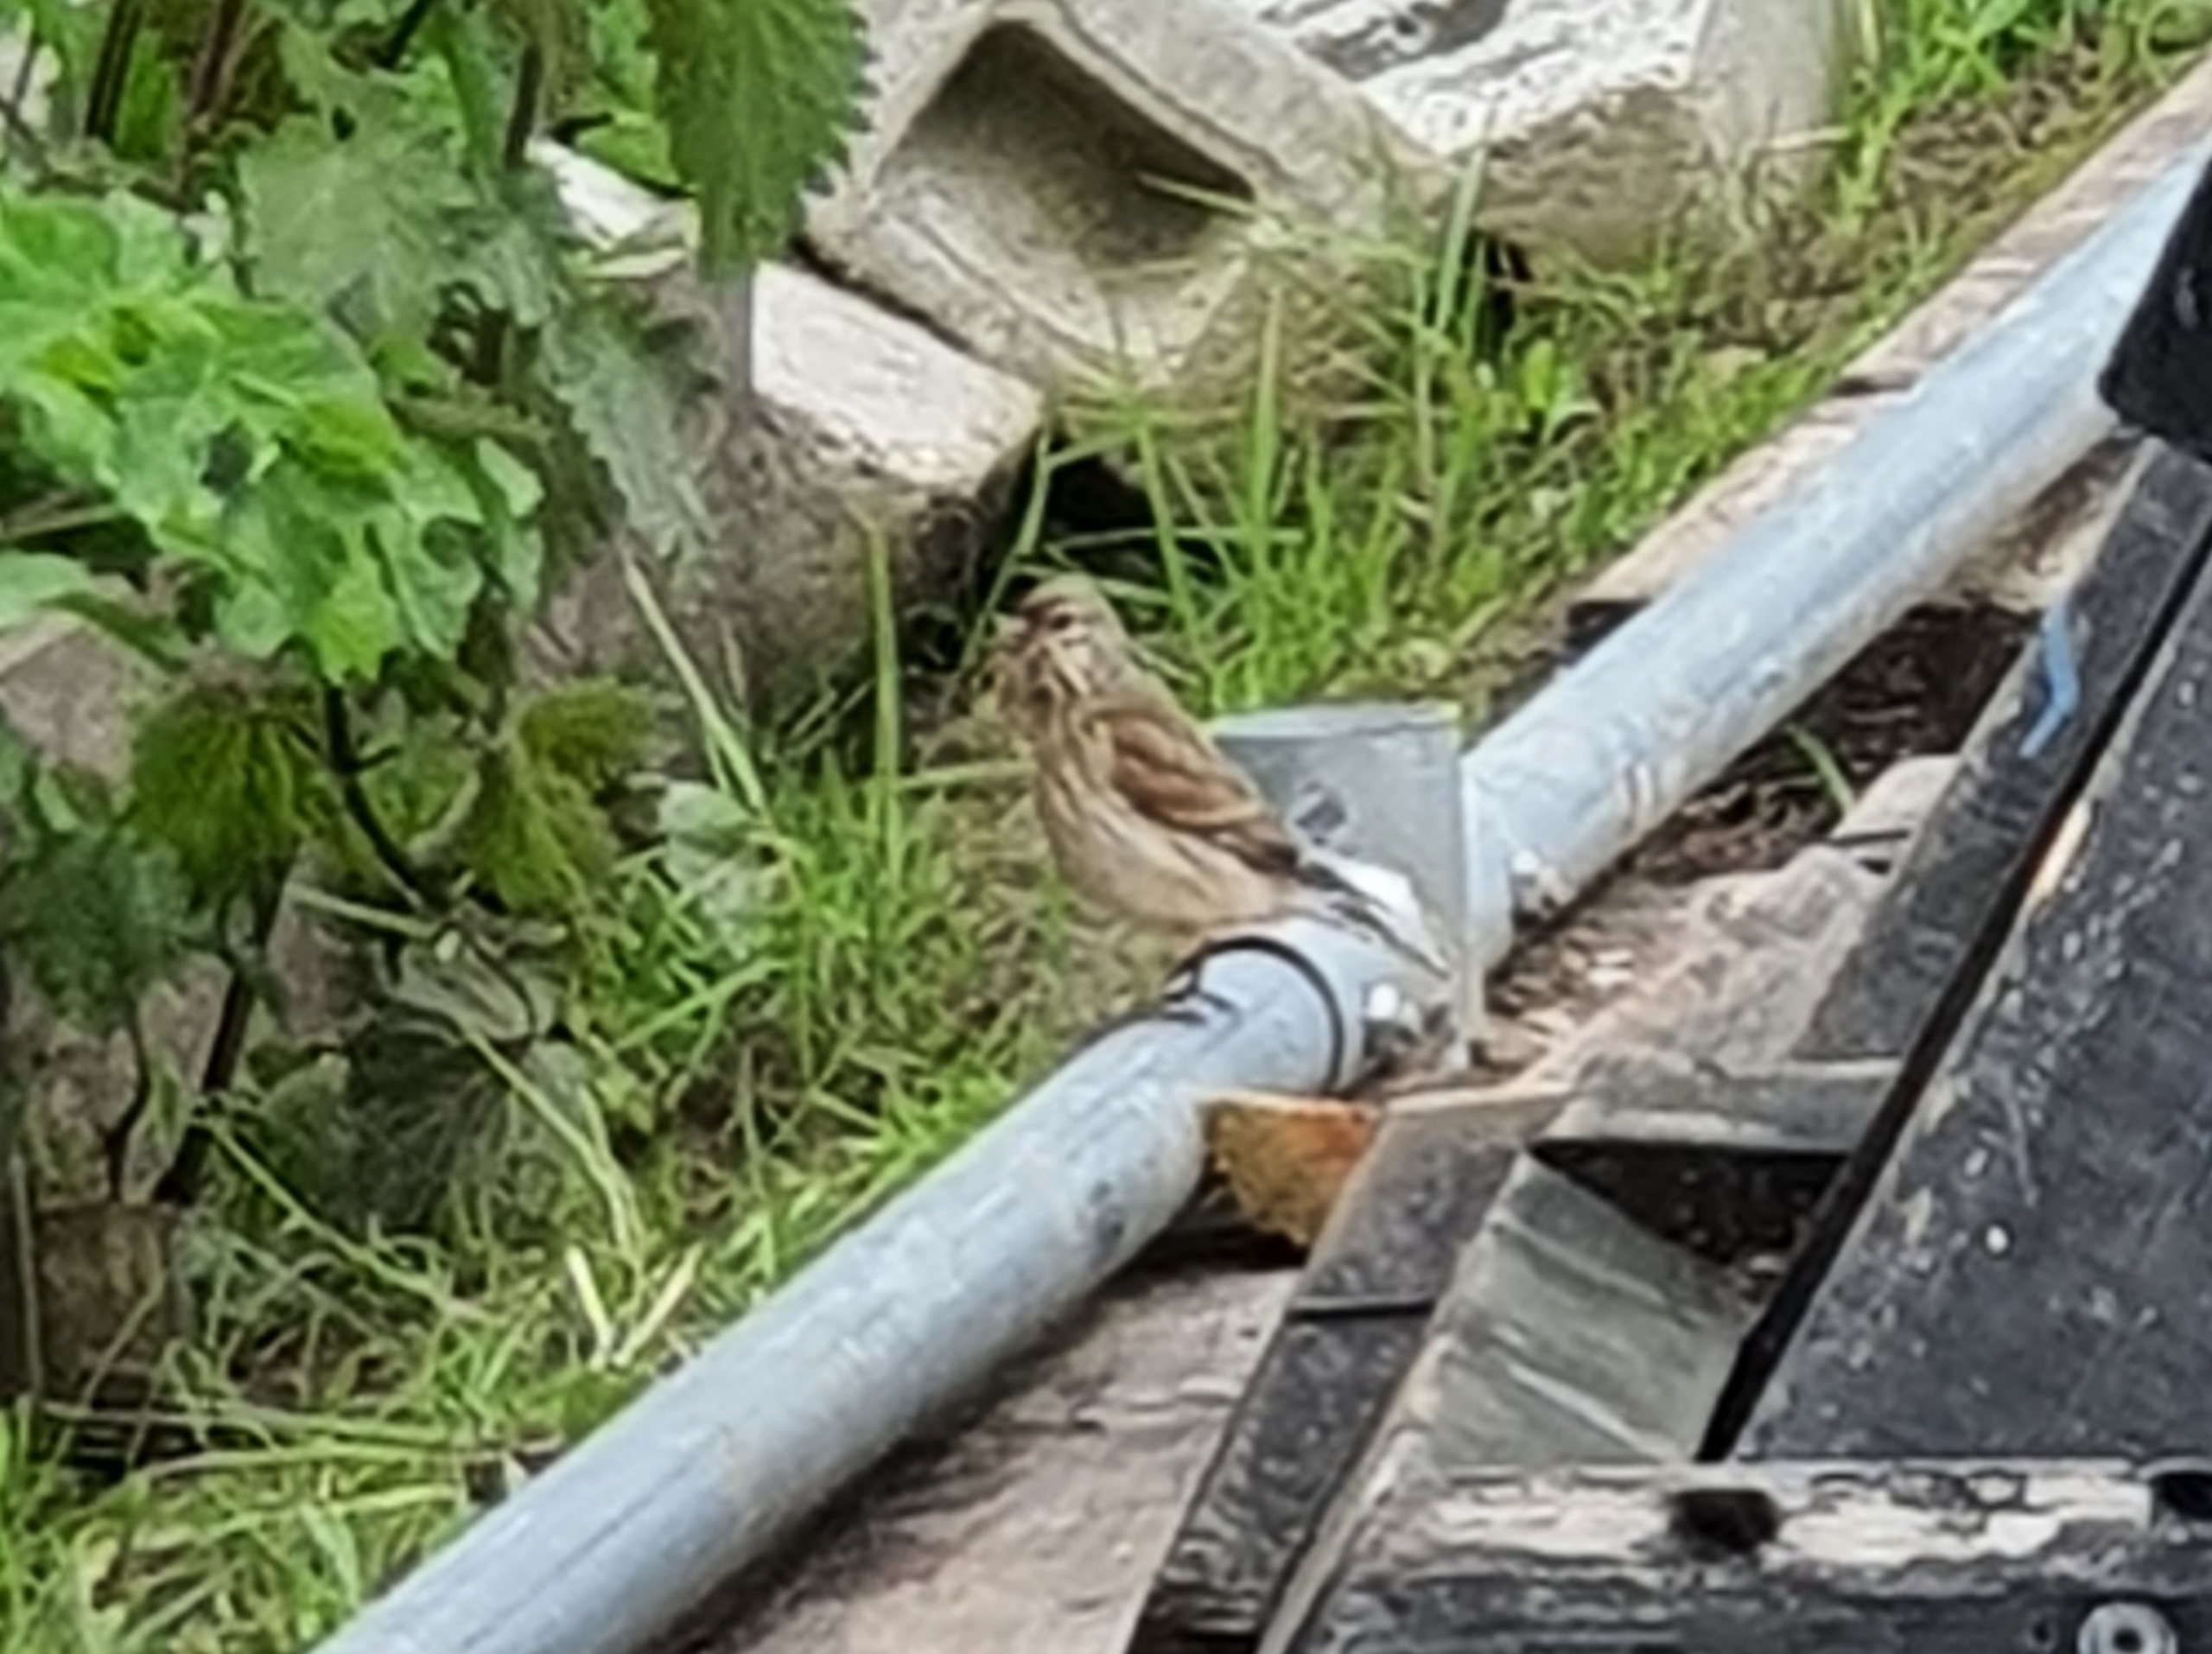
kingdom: Animalia
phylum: Chordata
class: Aves
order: Passeriformes
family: Fringillidae
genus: Linaria
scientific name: Linaria cannabina
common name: Tornirisk
